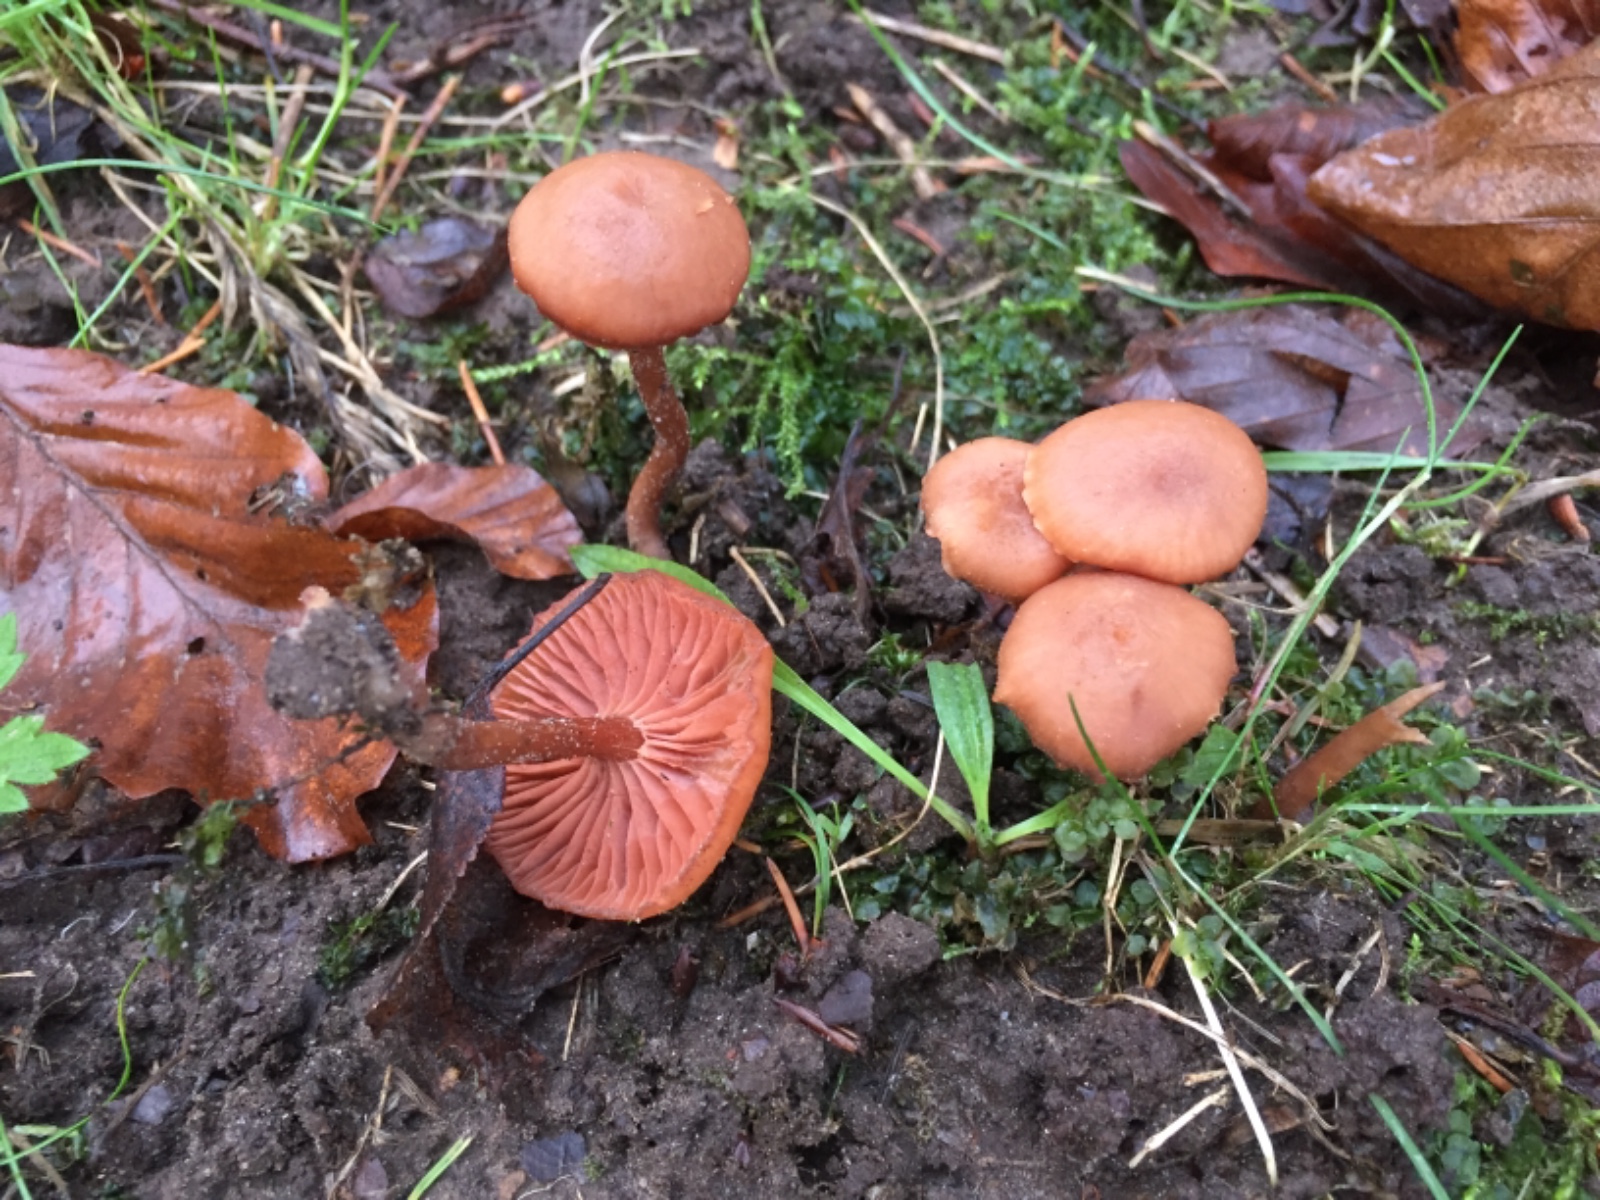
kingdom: Fungi
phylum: Basidiomycota
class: Agaricomycetes
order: Agaricales
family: Hydnangiaceae
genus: Laccaria
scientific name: Laccaria laccata
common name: rød ametysthat
